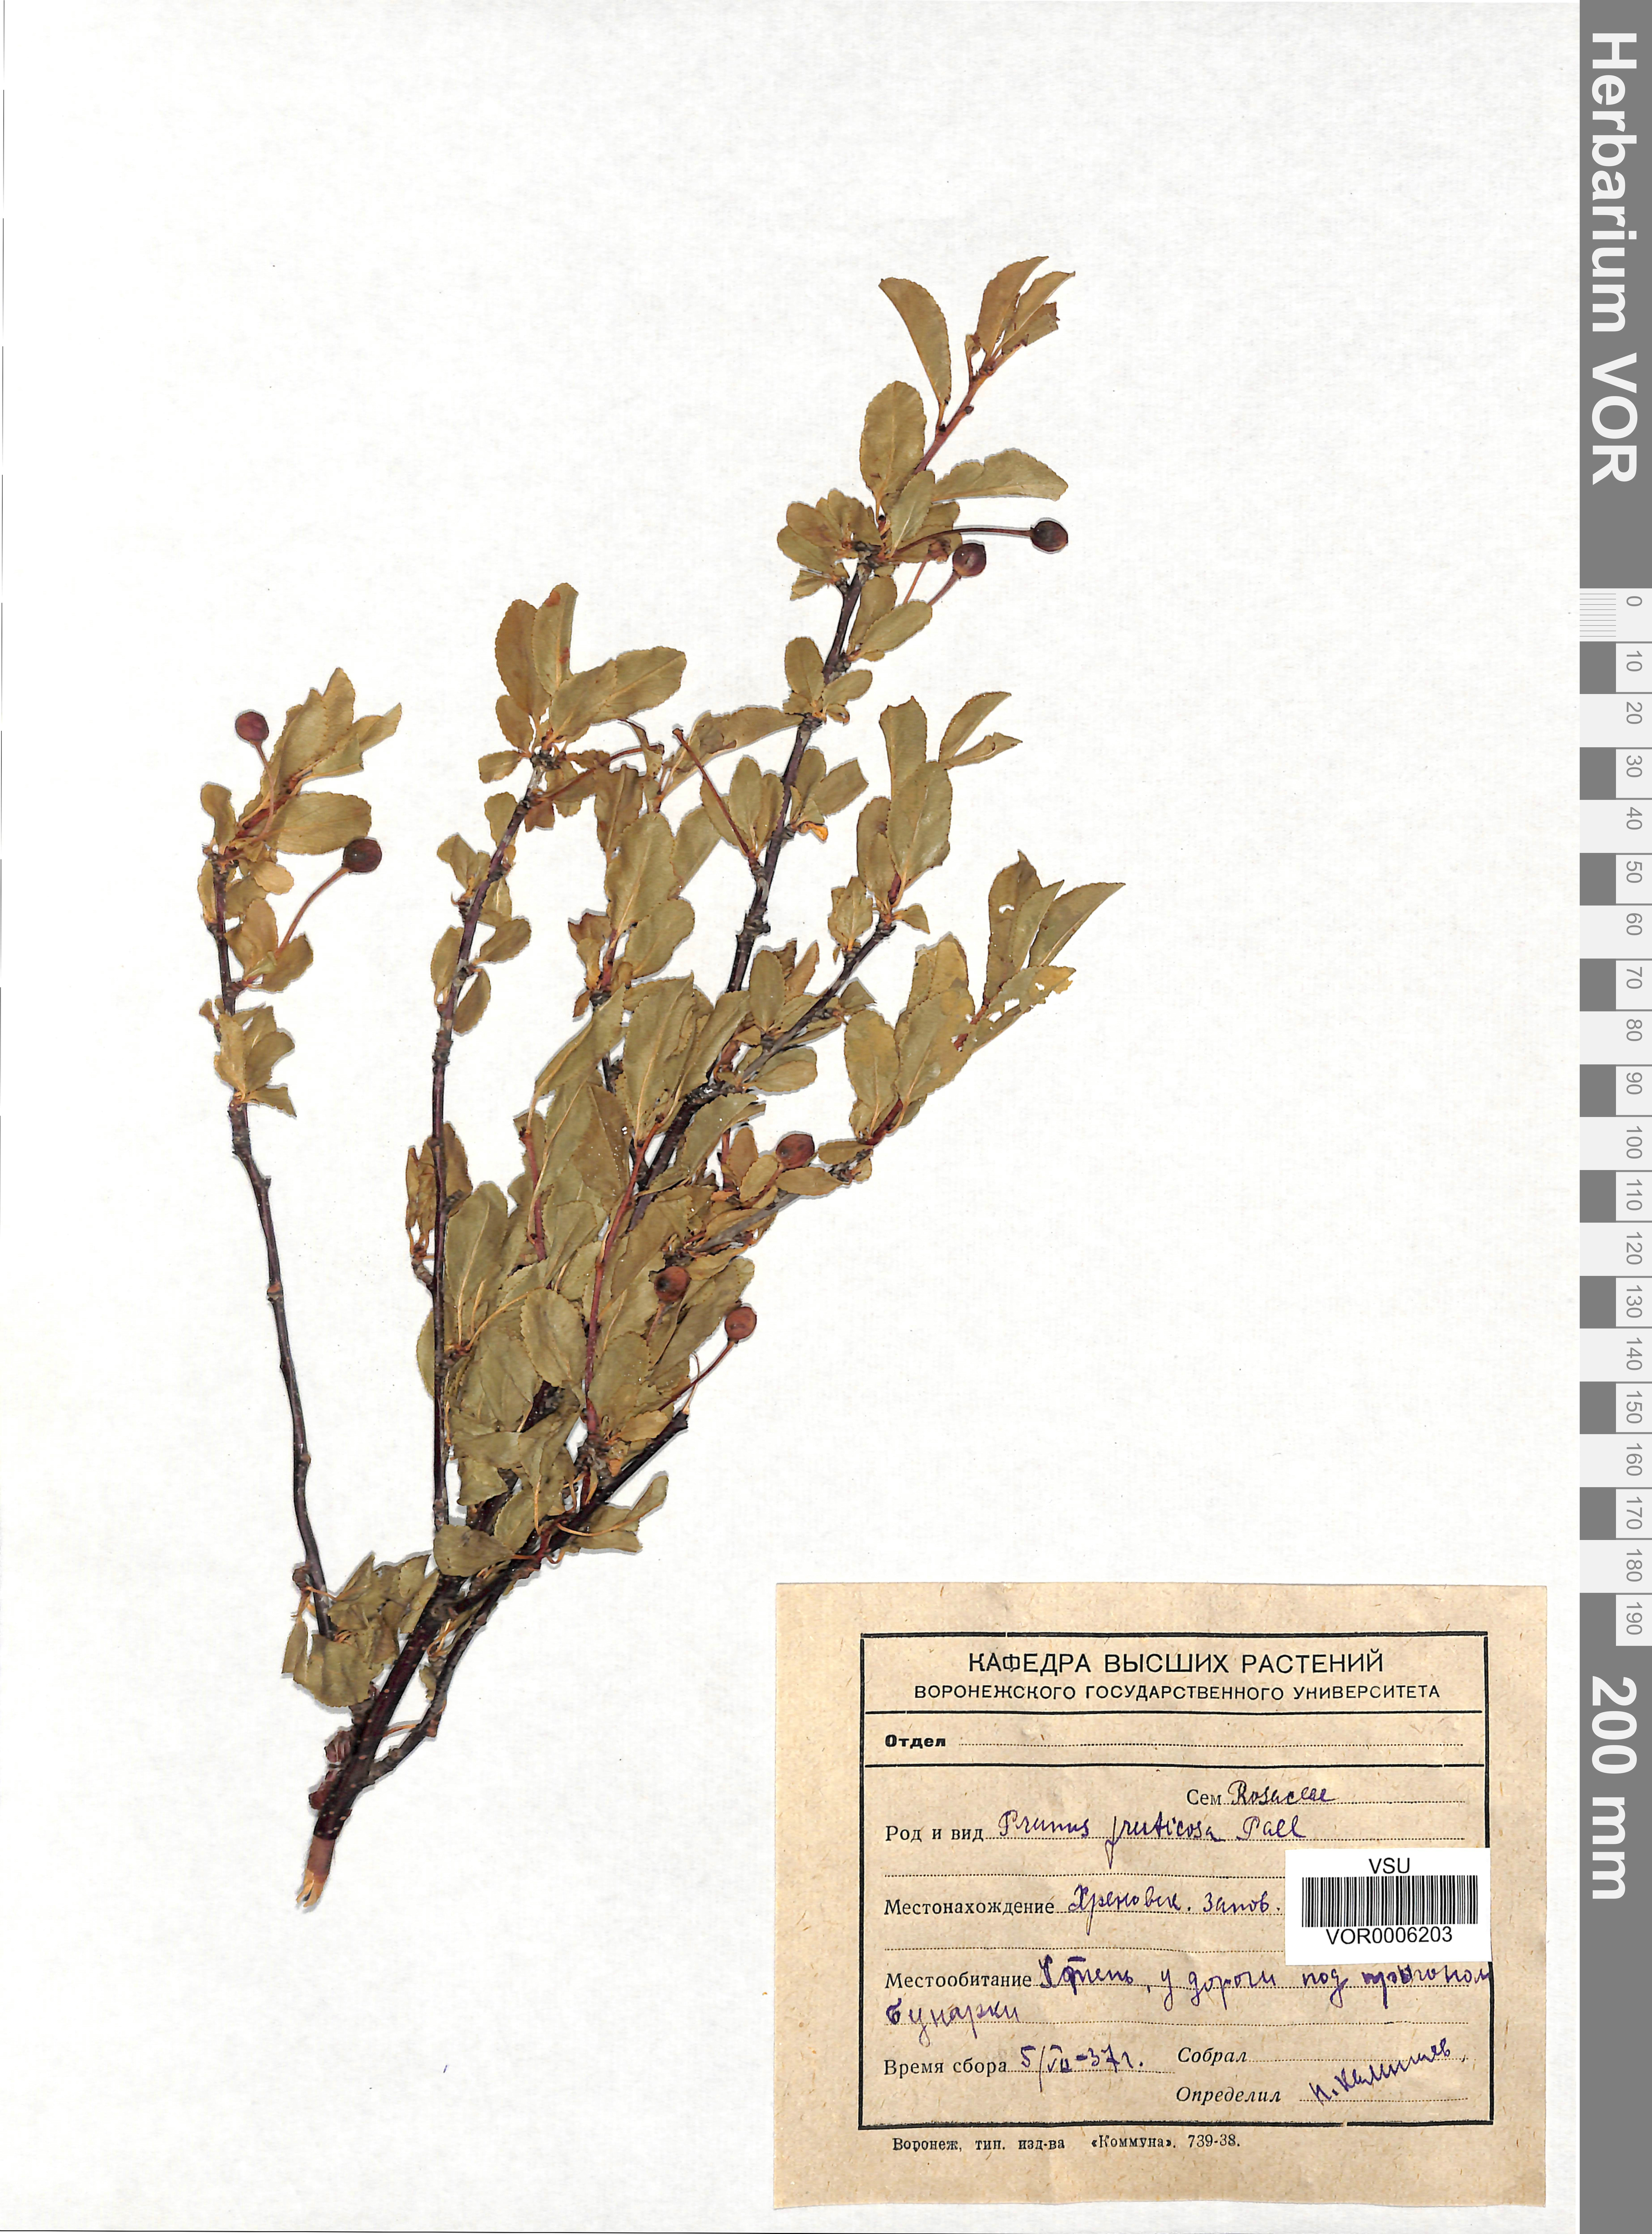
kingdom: Plantae
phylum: Tracheophyta
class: Magnoliopsida
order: Rosales
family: Rosaceae
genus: Prunus
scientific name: Prunus fruticosa
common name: European dwarf cherry
